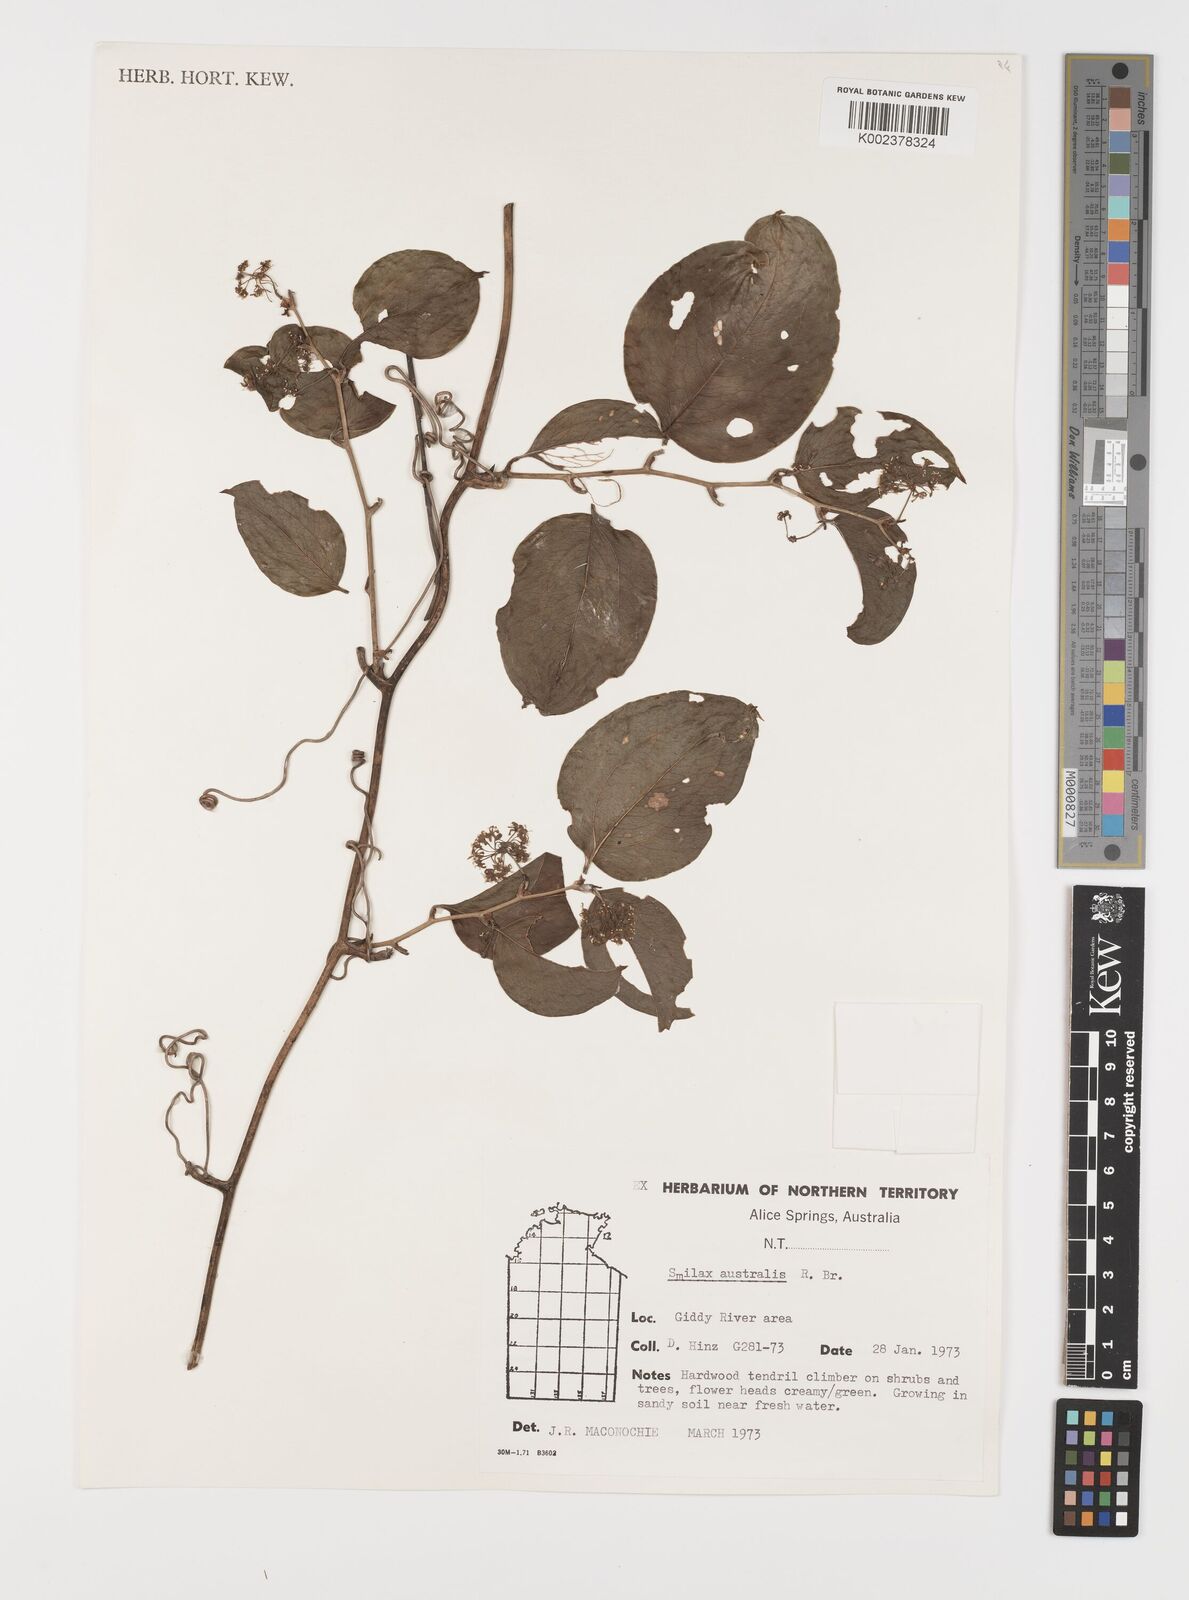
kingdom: Plantae
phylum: Tracheophyta
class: Liliopsida
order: Liliales
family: Smilacaceae
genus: Smilax
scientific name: Smilax australis
